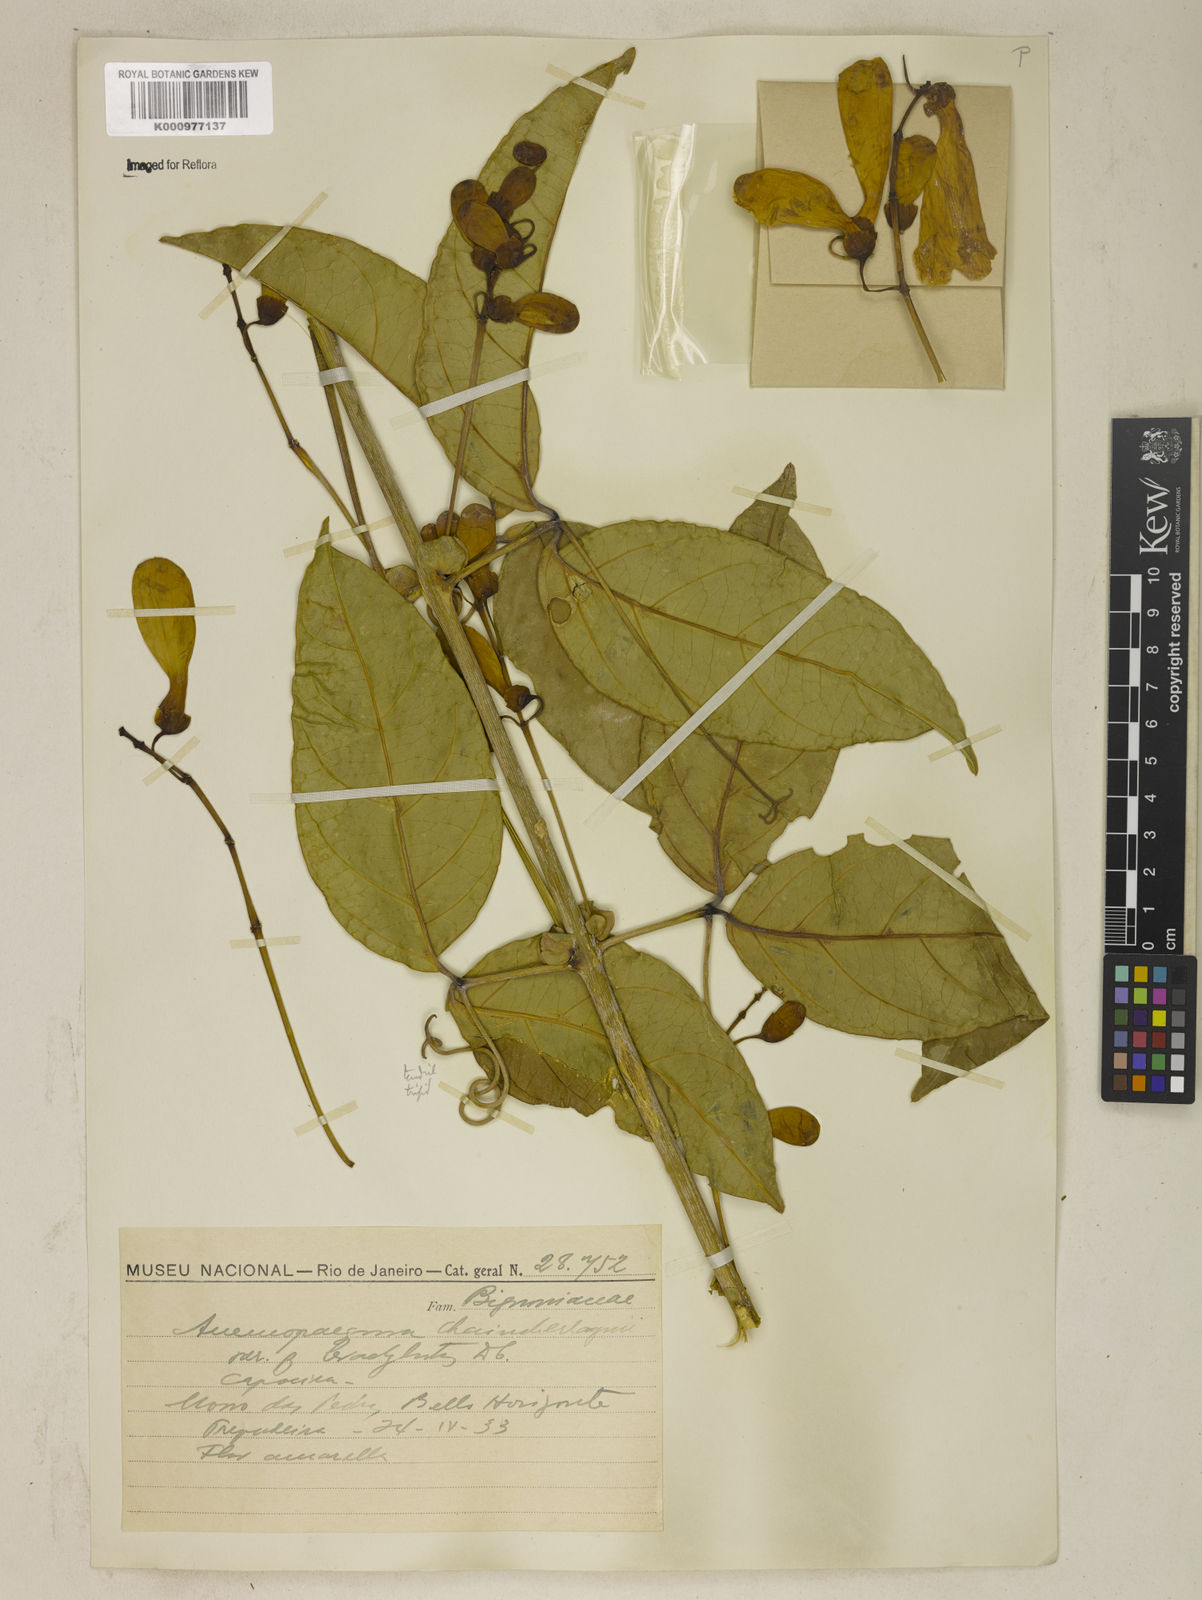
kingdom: Plantae
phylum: Tracheophyta
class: Magnoliopsida
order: Lamiales
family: Bignoniaceae
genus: Anemopaegma
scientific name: Anemopaegma chamberlaynii
